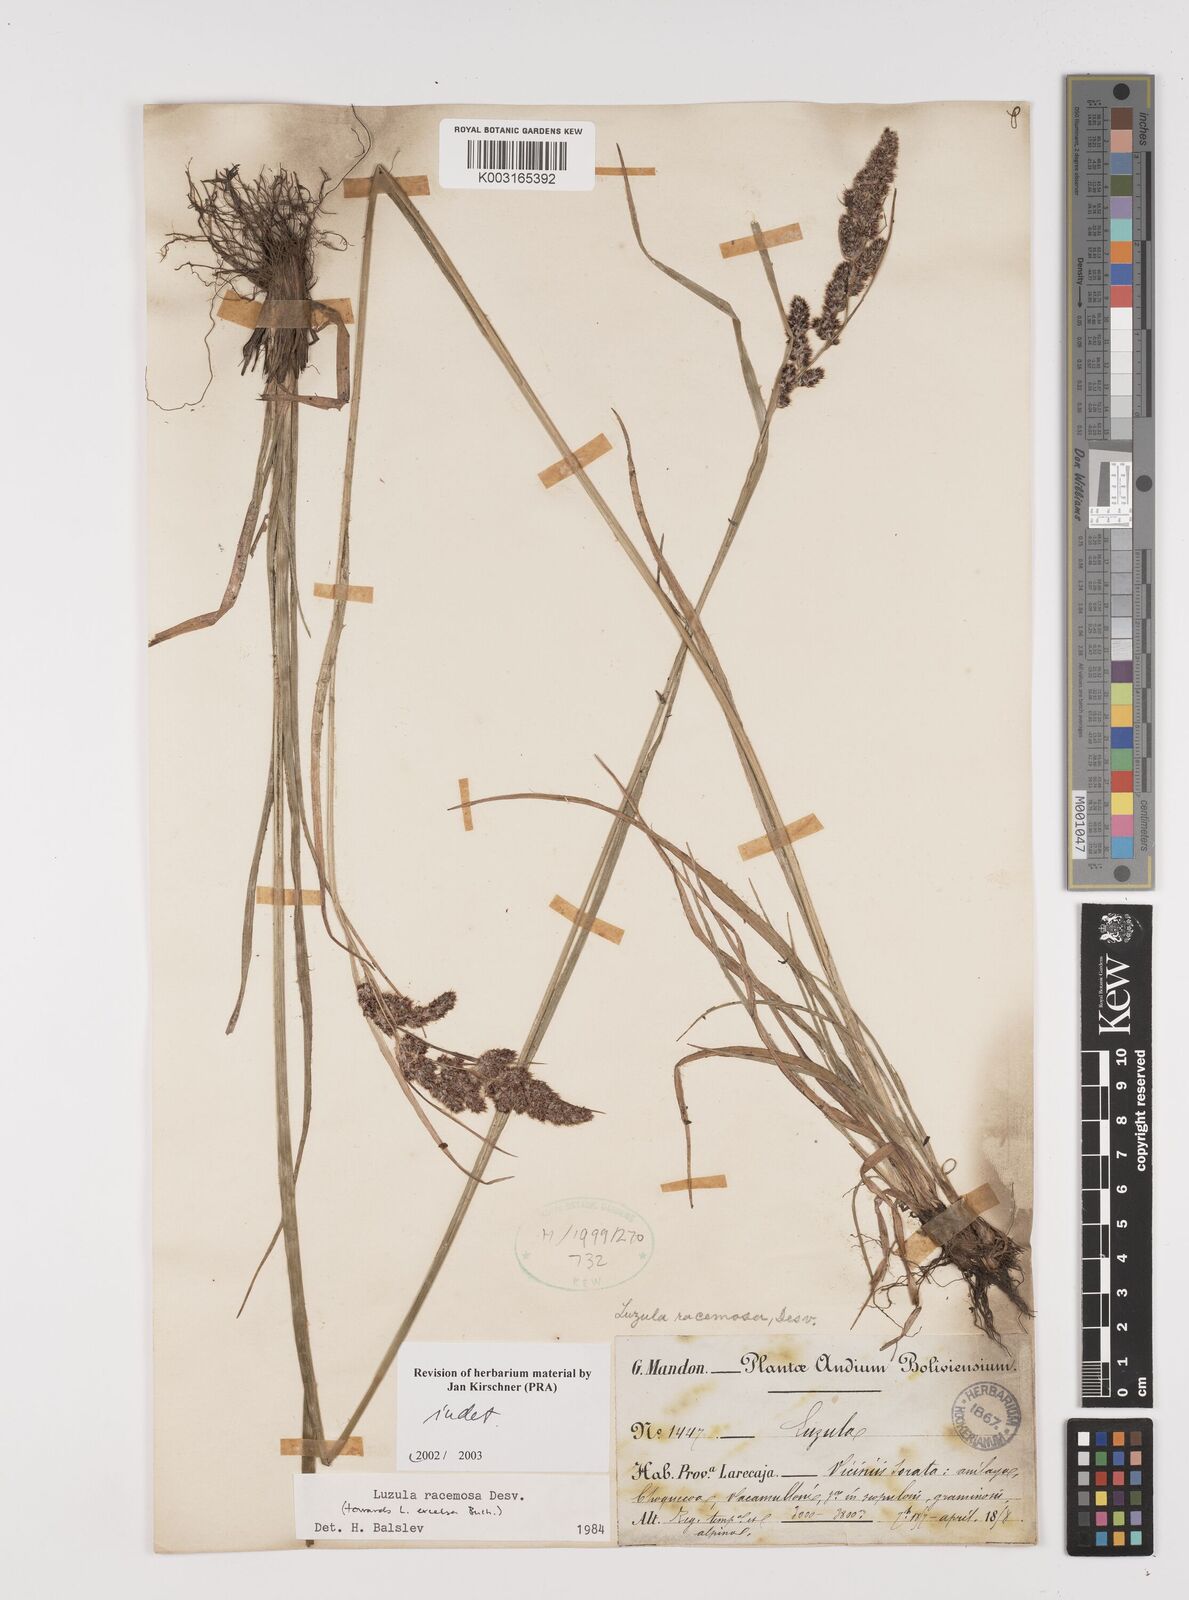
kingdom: Plantae
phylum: Tracheophyta
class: Liliopsida
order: Poales
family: Juncaceae
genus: Luzula
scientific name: Luzula
